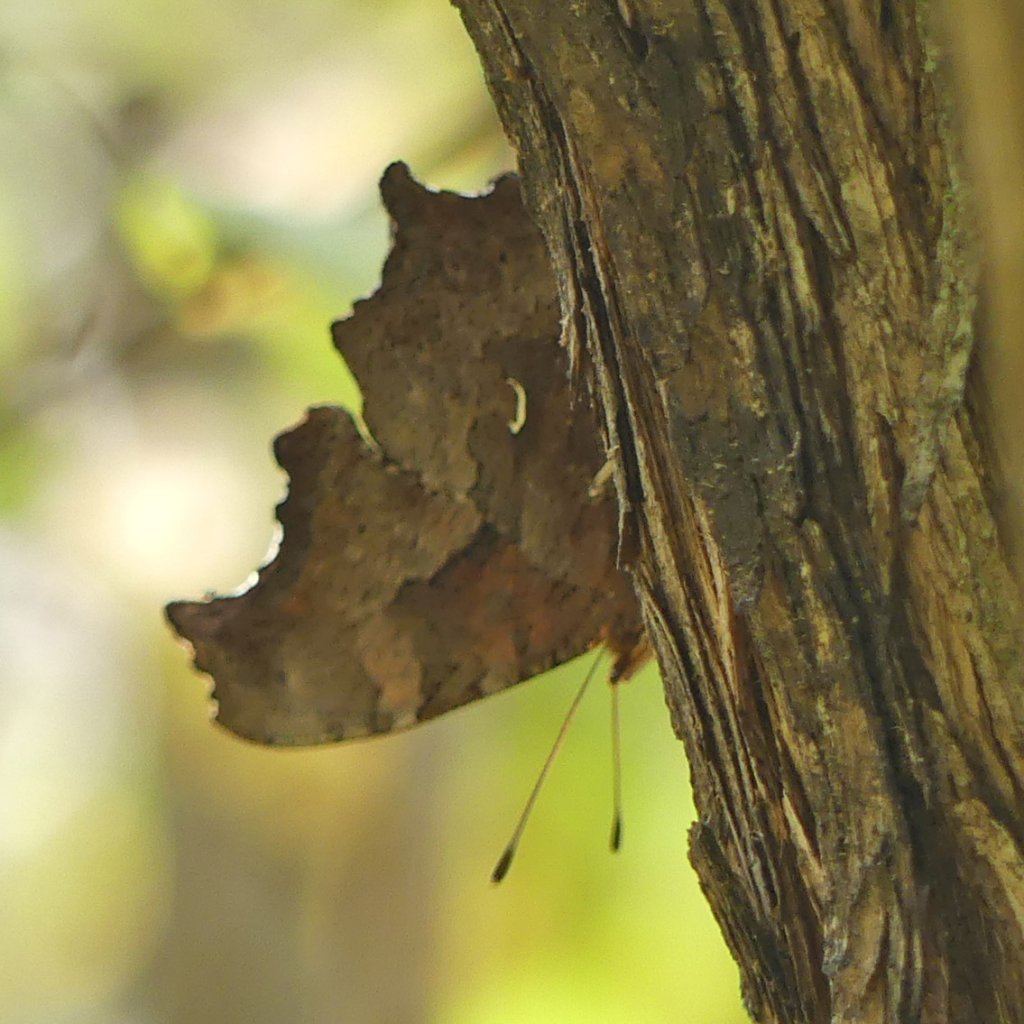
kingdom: Animalia
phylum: Arthropoda
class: Insecta
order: Lepidoptera
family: Nymphalidae
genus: Polygonia
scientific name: Polygonia comma
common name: Eastern Comma
